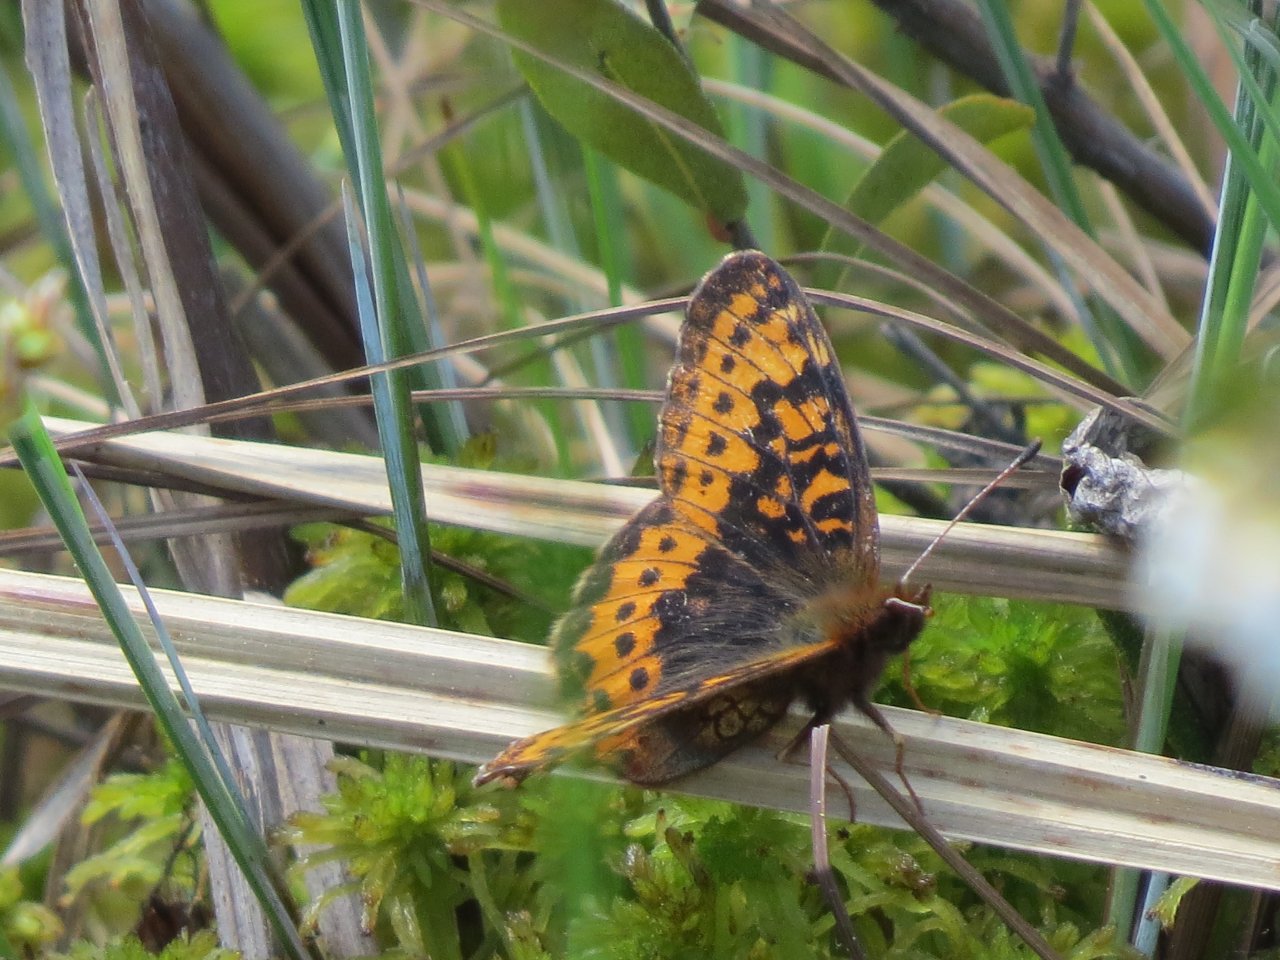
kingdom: Animalia
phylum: Arthropoda
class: Insecta
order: Lepidoptera
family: Nymphalidae
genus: Boloria
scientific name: Boloria frigga
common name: Frigga Fritillary
